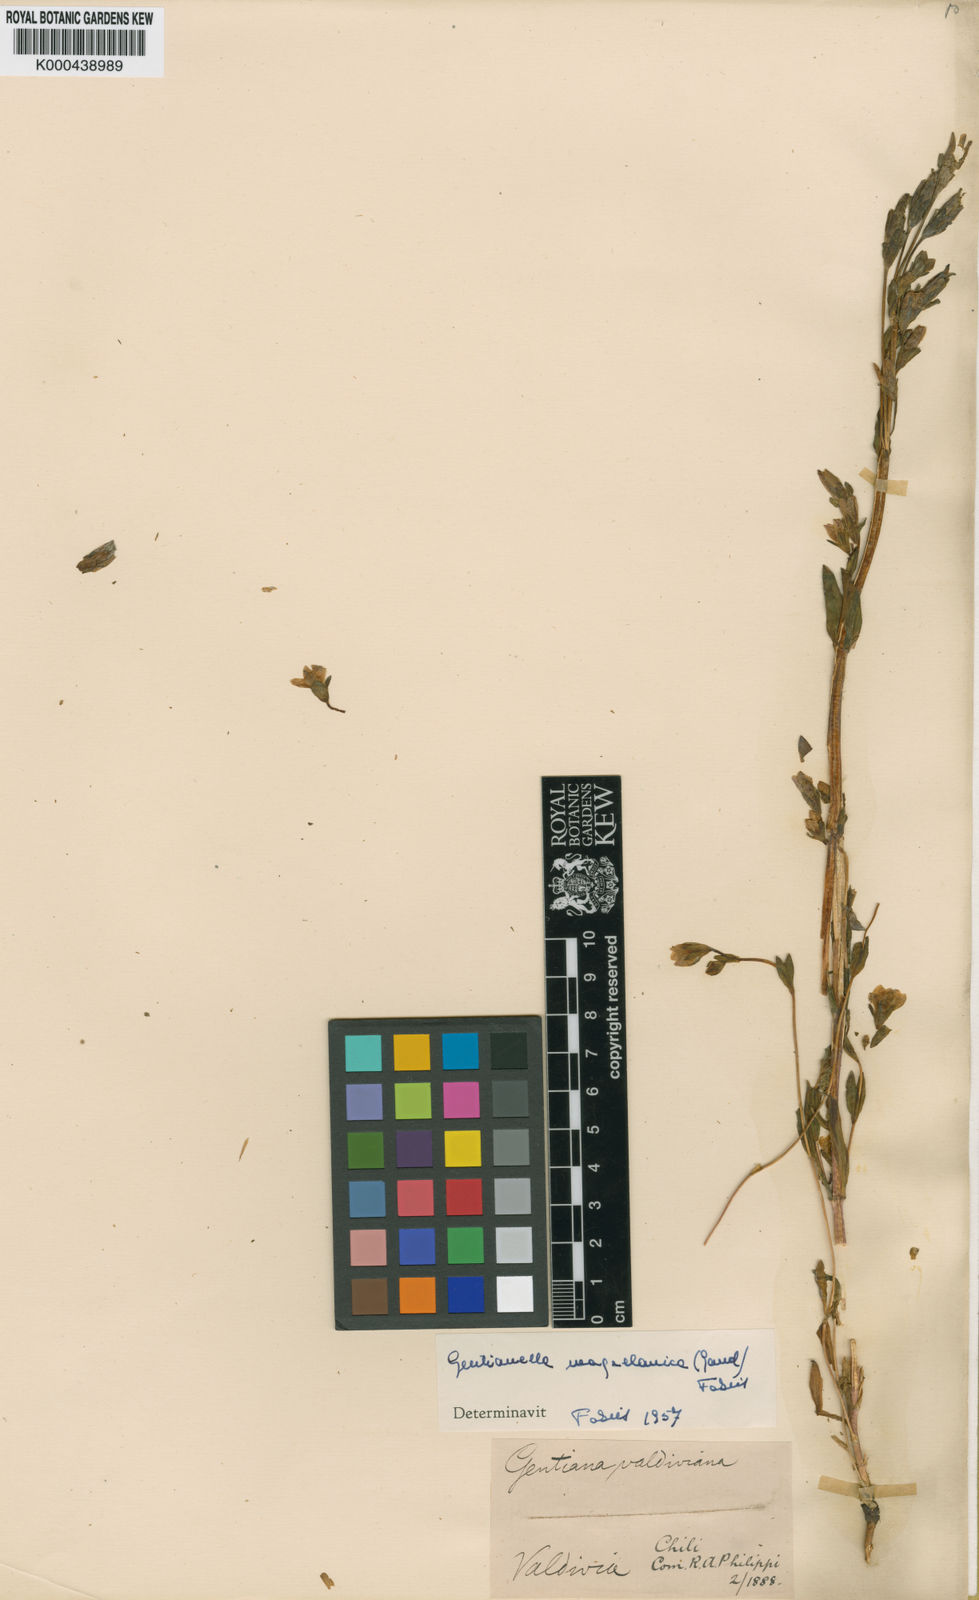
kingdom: Plantae
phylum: Tracheophyta
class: Magnoliopsida
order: Gentianales
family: Gentianaceae
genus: Gentianella
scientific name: Gentianella magellanica
